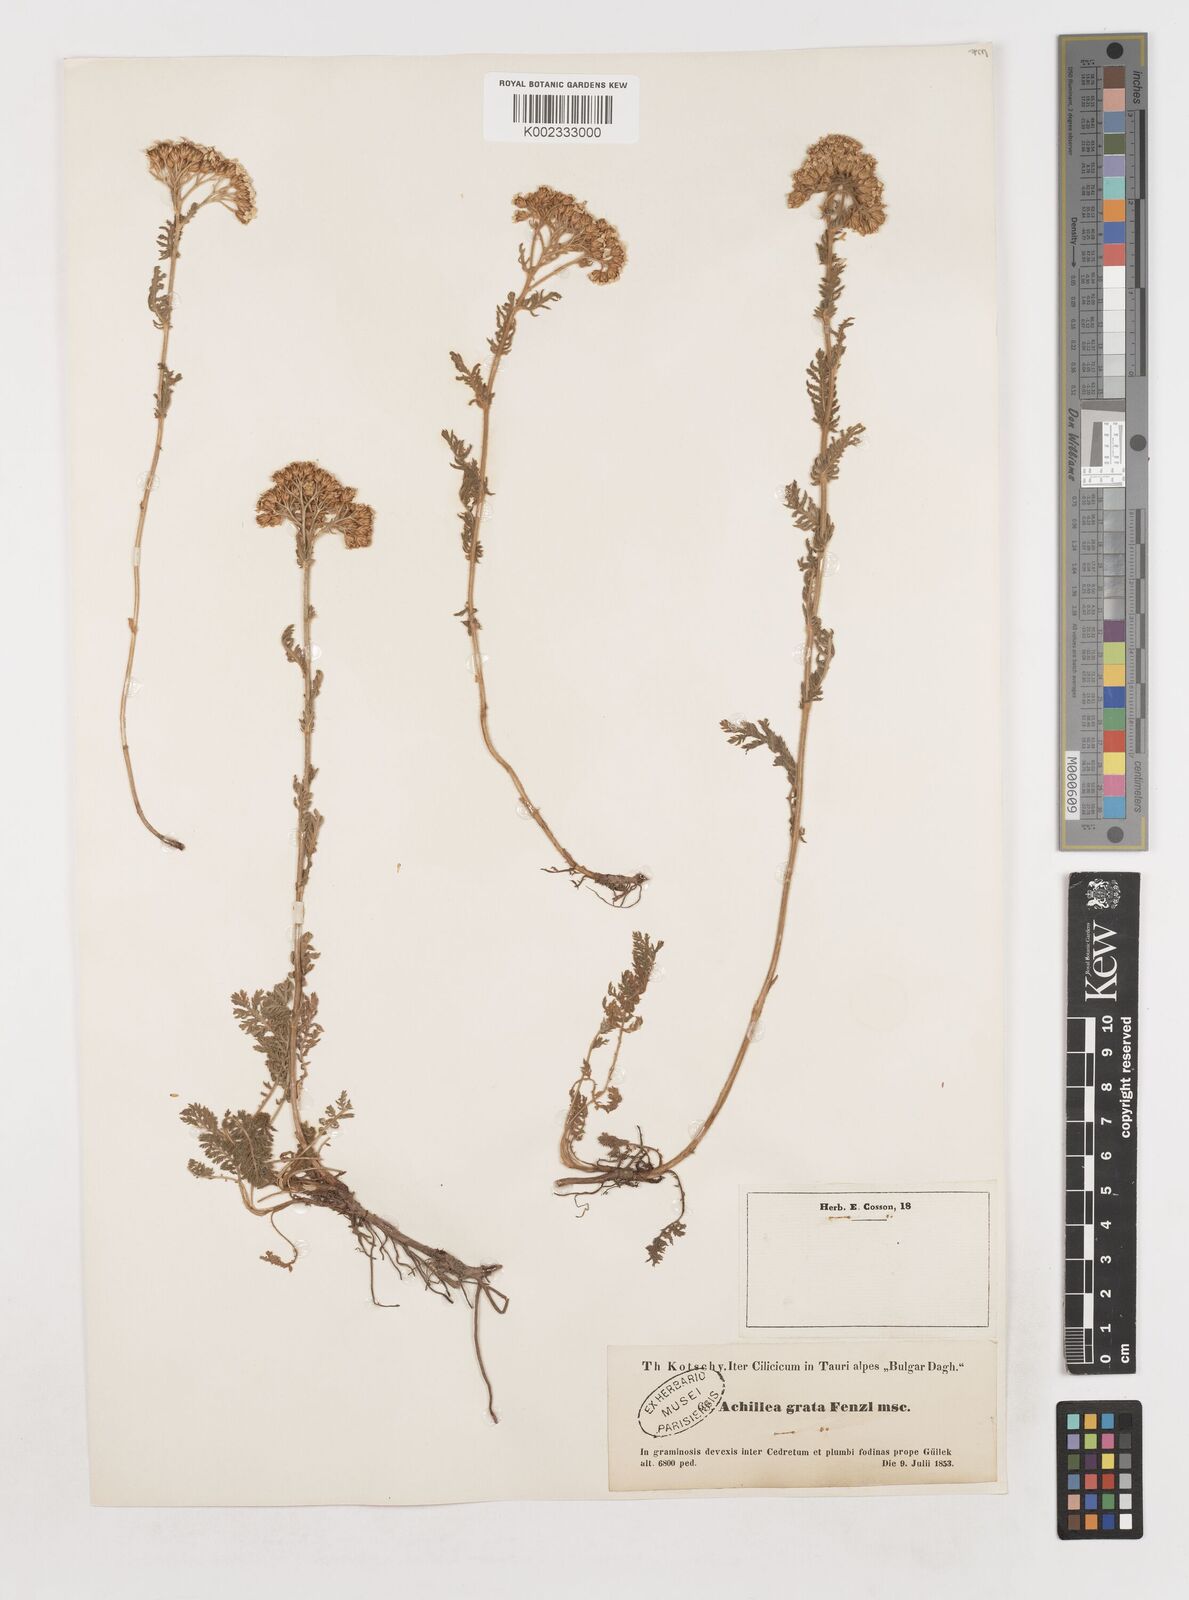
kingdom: Plantae
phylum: Tracheophyta
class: Magnoliopsida
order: Asterales
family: Asteraceae
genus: Achillea
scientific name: Achillea nobilis
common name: Noble yarrow
